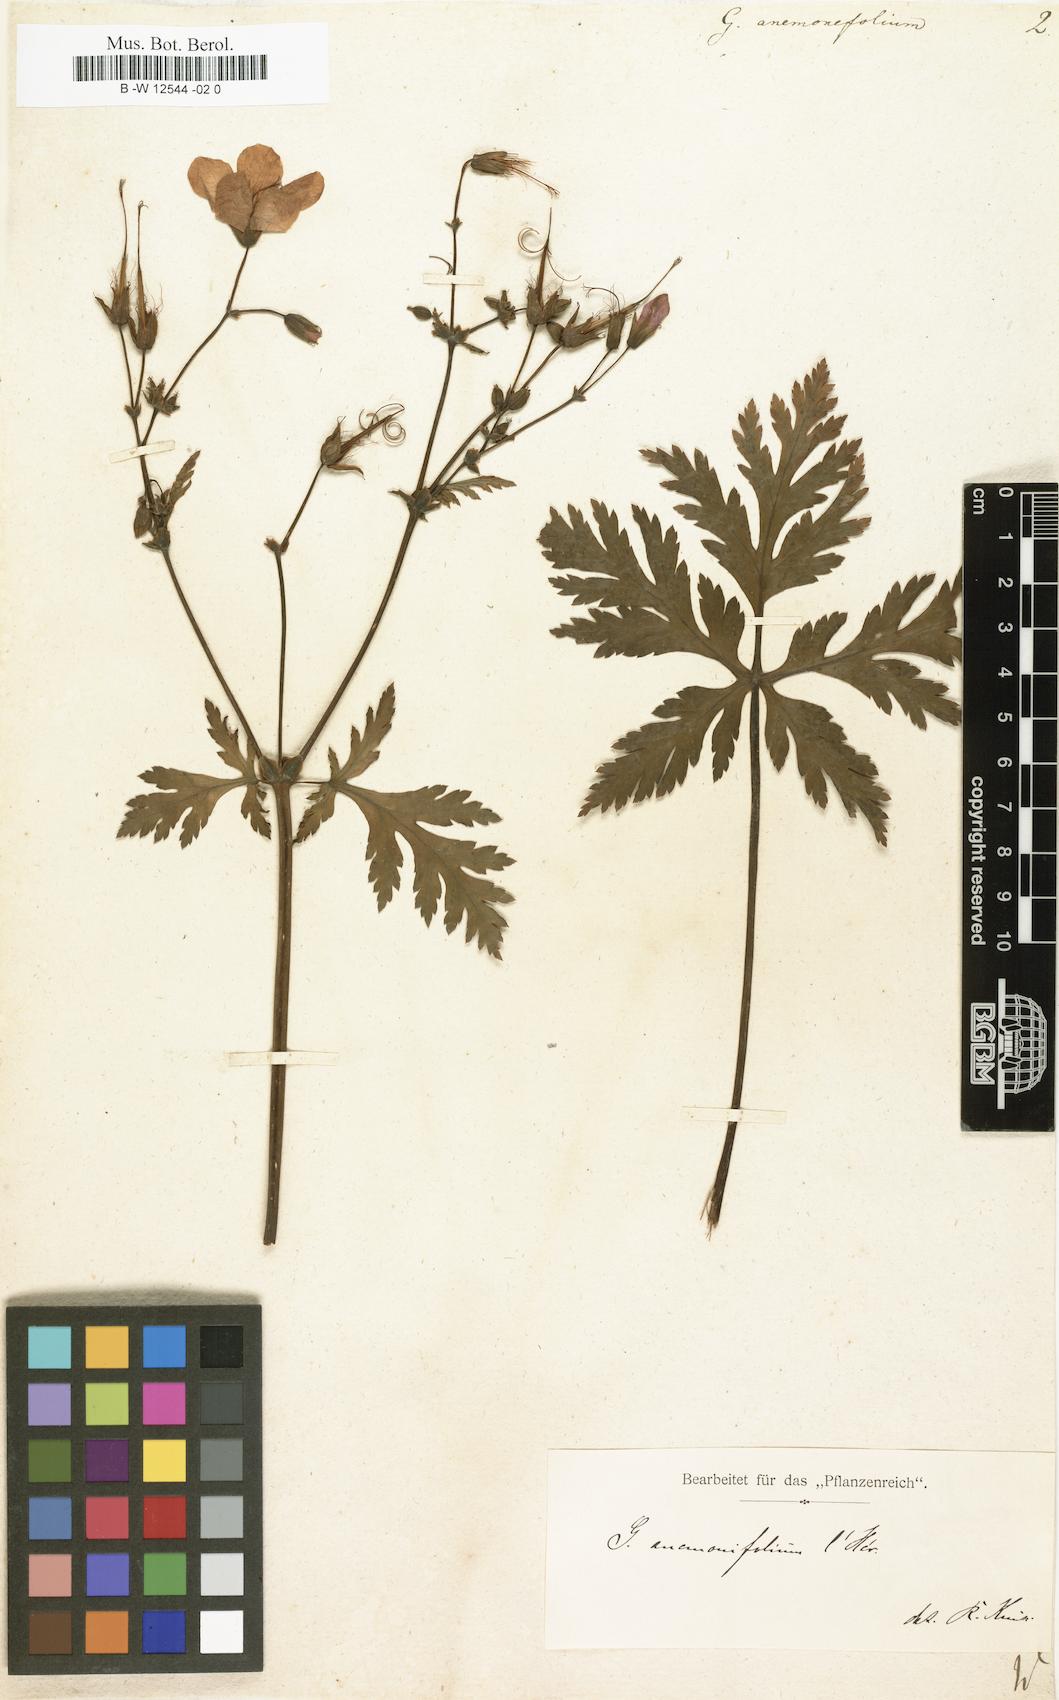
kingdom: Plantae
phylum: Tracheophyta
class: Magnoliopsida
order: Geraniales
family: Geraniaceae
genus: Geranium
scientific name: Geranium palmatum
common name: Canary island geranium
